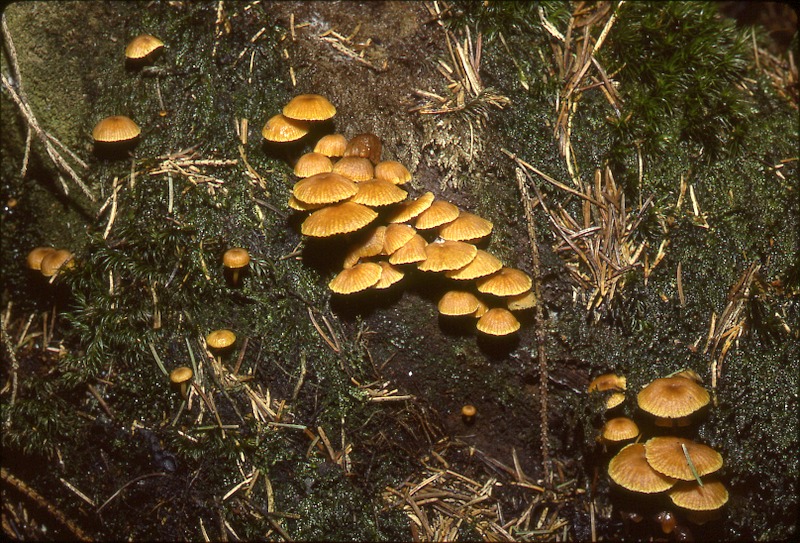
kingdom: Fungi
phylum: Basidiomycota
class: Agaricomycetes
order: Agaricales
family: Mycenaceae
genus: Xeromphalina
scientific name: Xeromphalina campanella
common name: Pinewood gingertail
